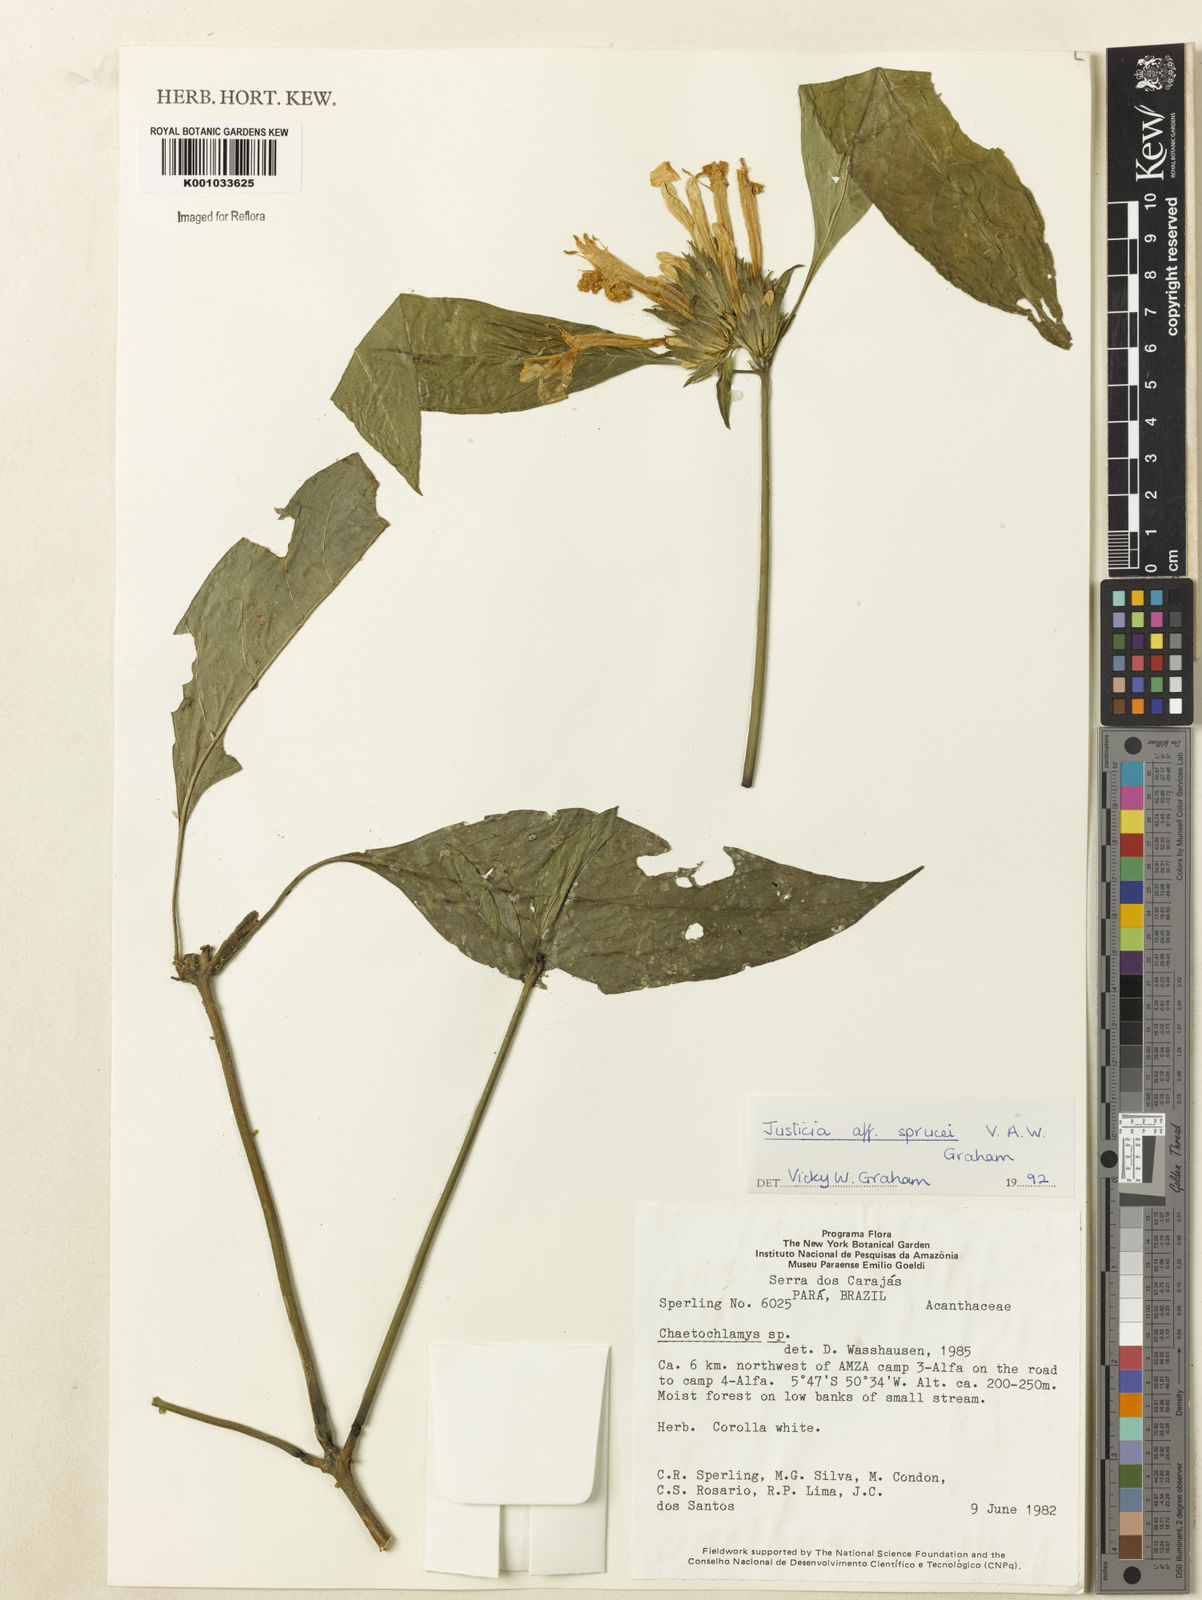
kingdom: Plantae
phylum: Tracheophyta
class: Magnoliopsida
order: Lamiales
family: Acanthaceae
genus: Justicia
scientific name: Justicia sprucei
